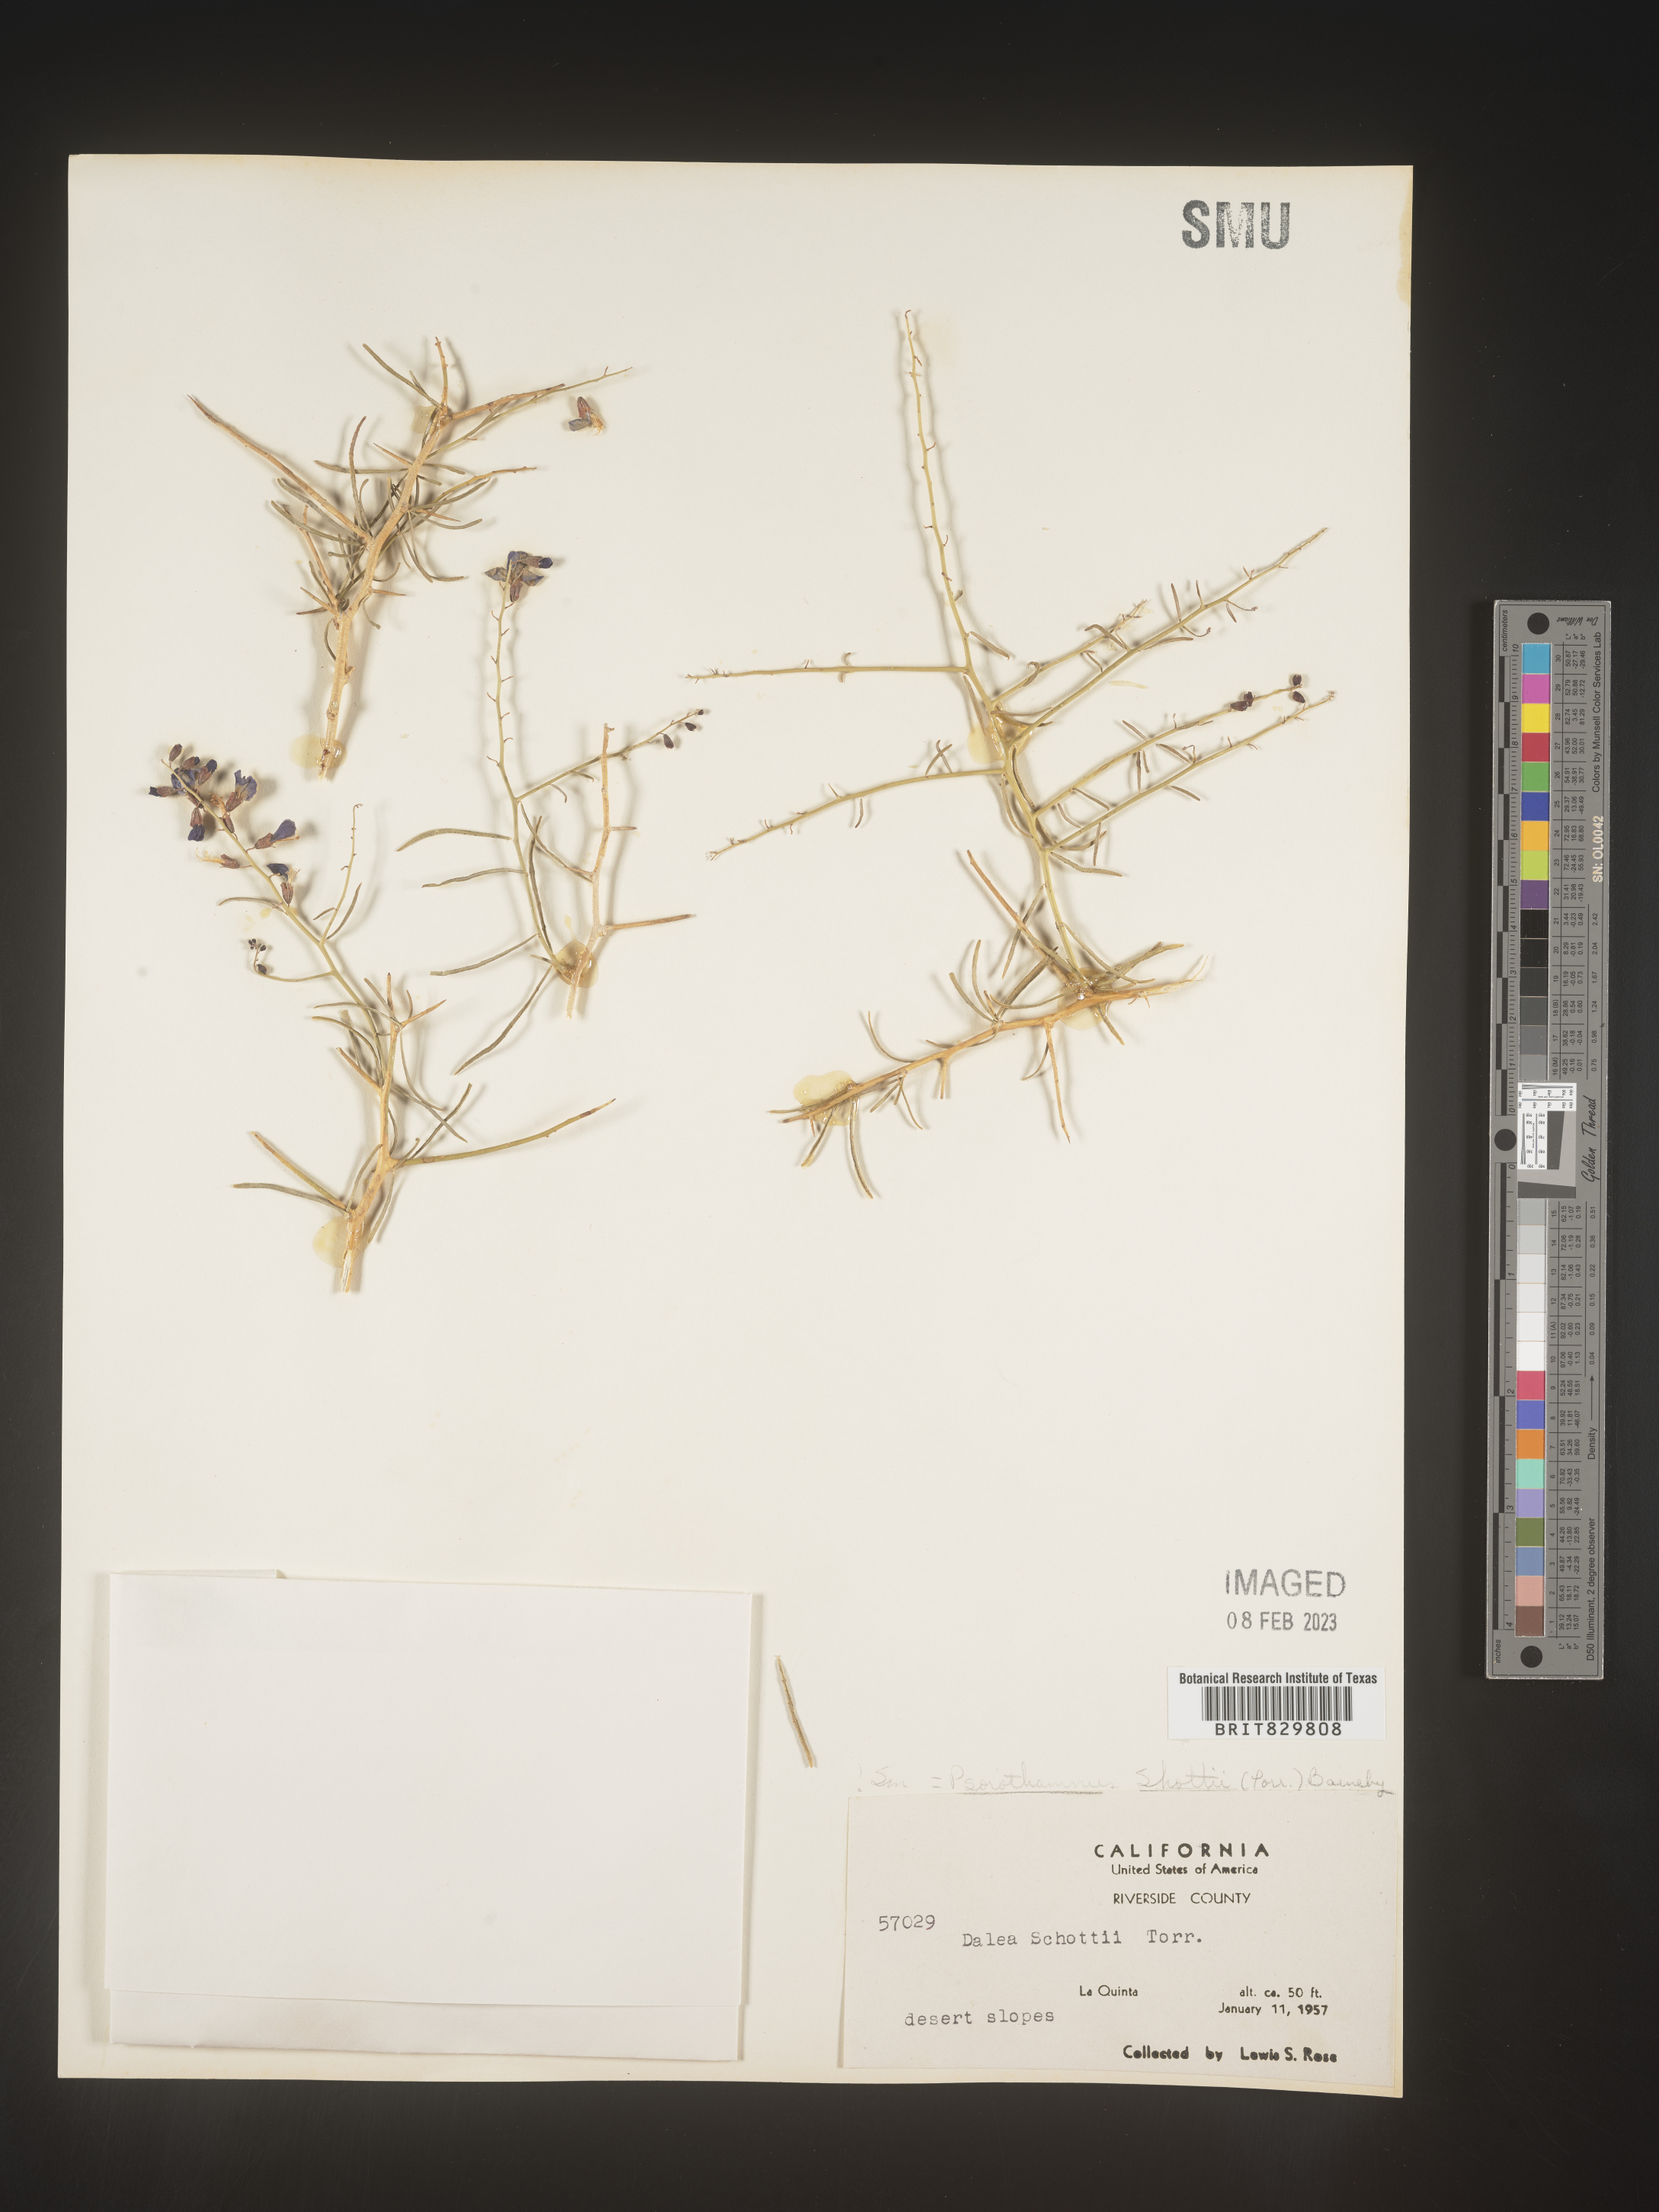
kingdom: Plantae
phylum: Tracheophyta
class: Magnoliopsida
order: Fabales
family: Fabaceae
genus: Psorothamnus
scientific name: Psorothamnus
